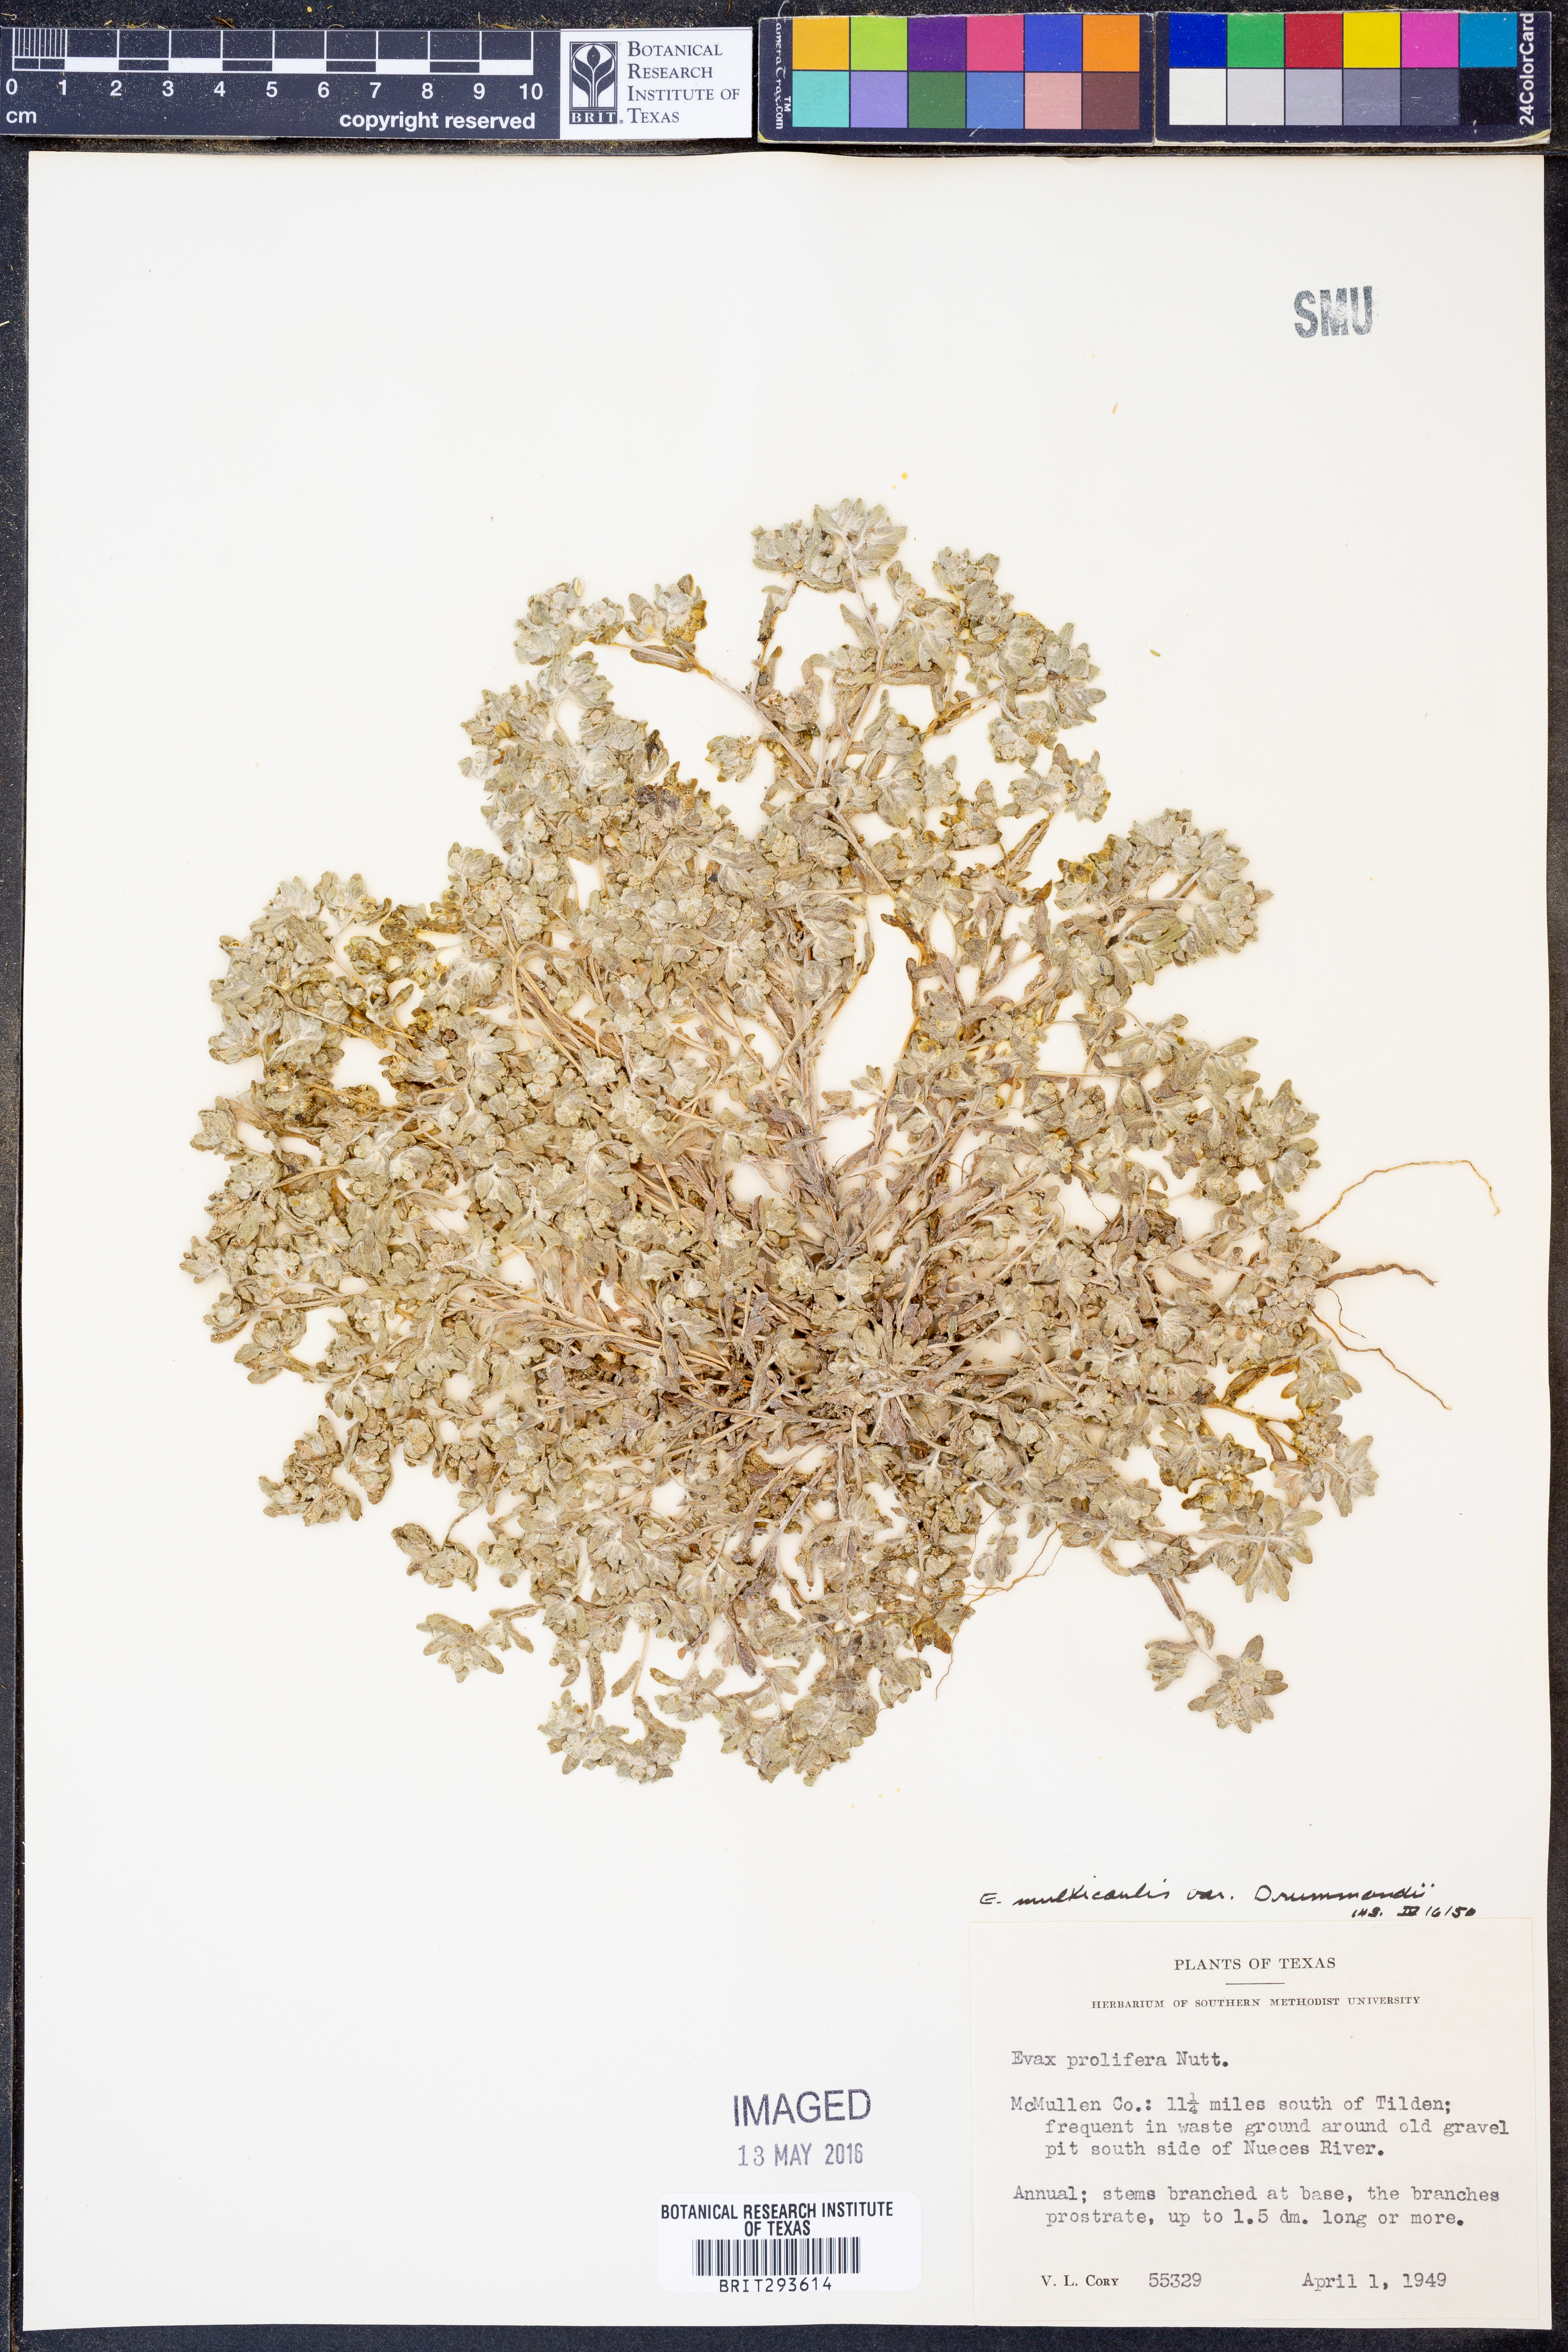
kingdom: Plantae
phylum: Tracheophyta
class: Magnoliopsida
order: Asterales
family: Asteraceae
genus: Diaperia
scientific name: Diaperia verna
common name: Many-stem rabbit-tobacco
